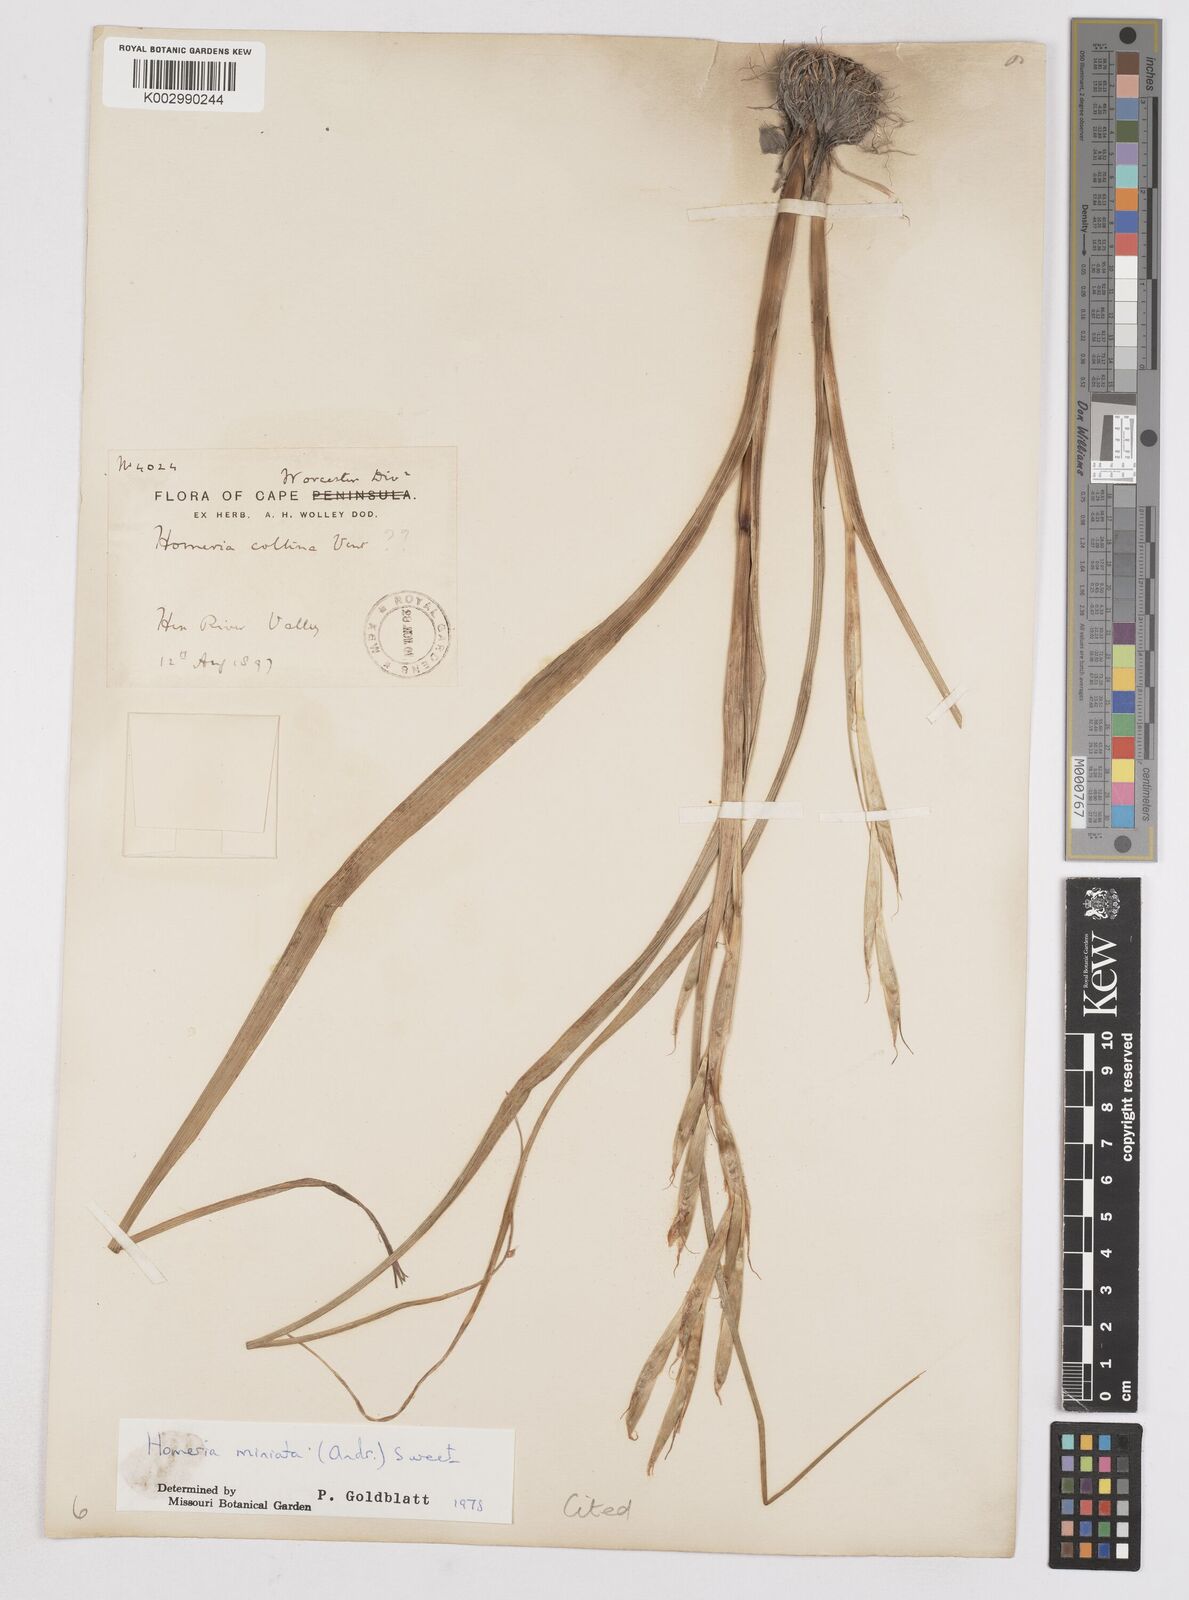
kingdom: Plantae
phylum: Tracheophyta
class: Liliopsida
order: Asparagales
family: Iridaceae
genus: Moraea
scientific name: Moraea miniata
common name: Two-leaf cape-tulip
